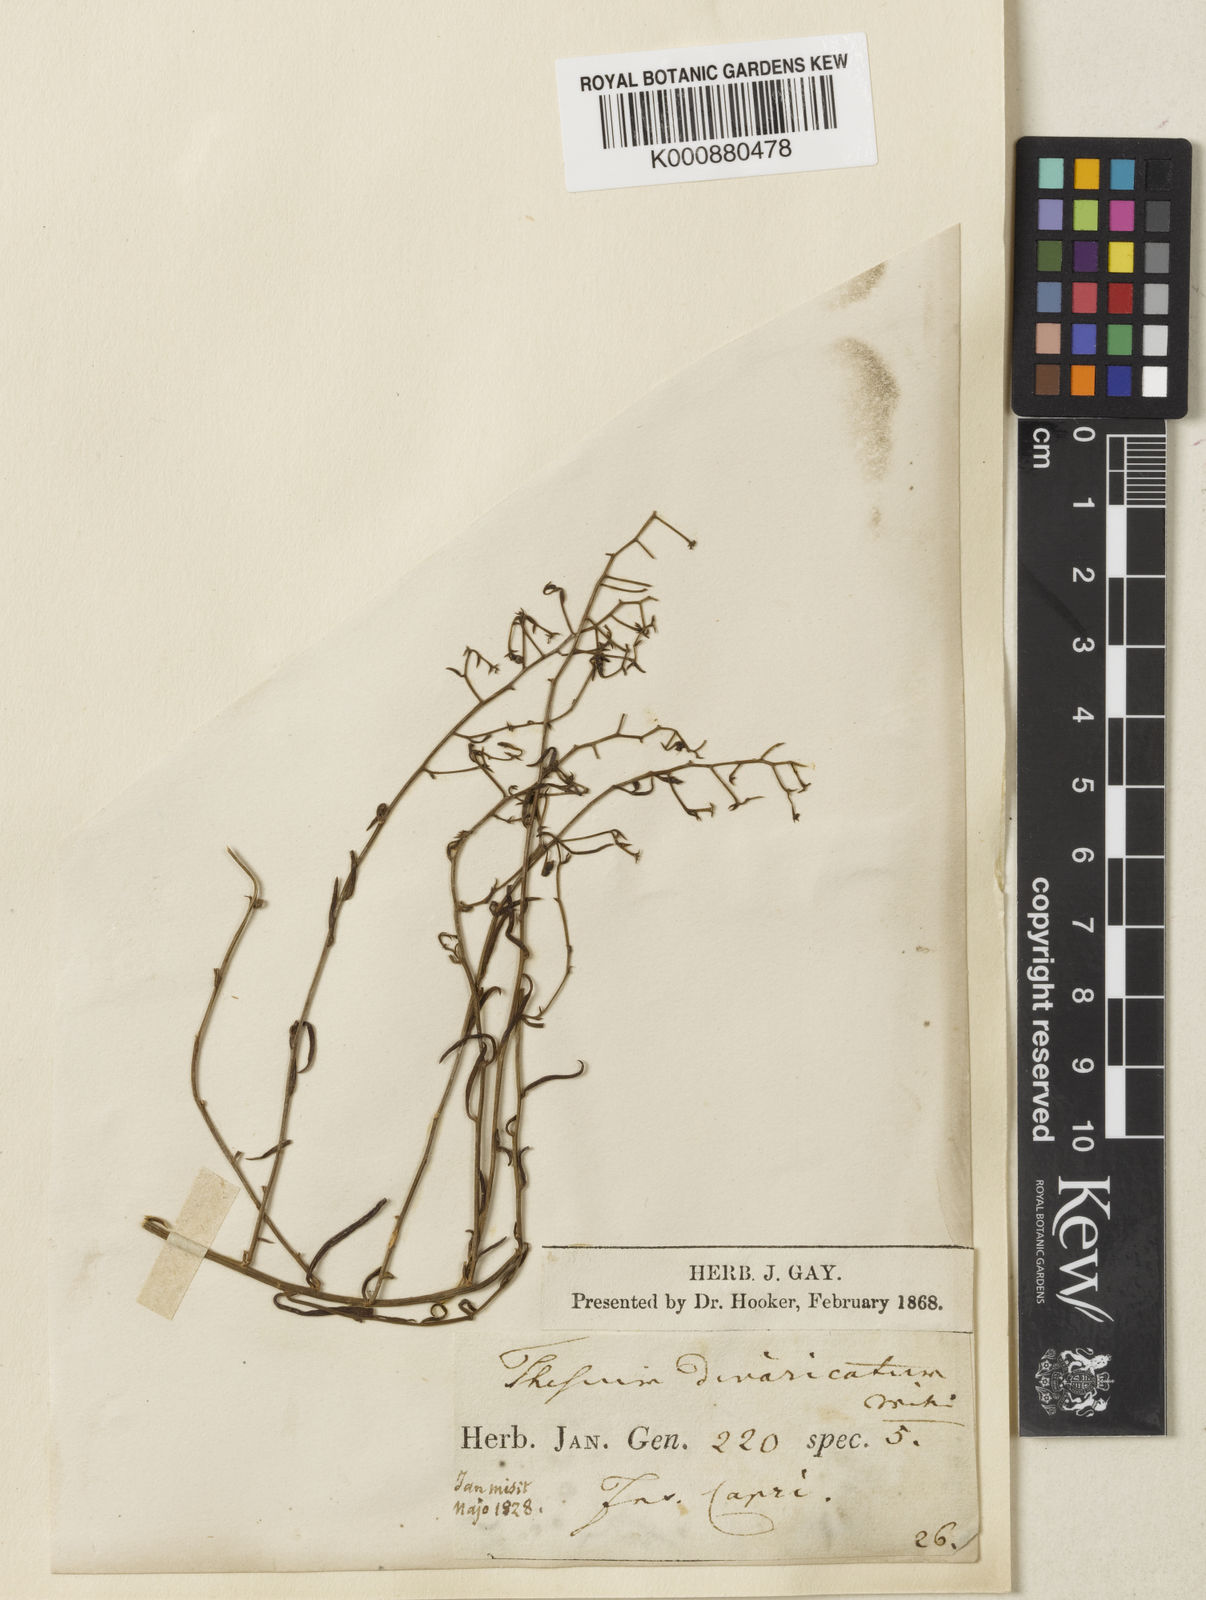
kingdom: Plantae
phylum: Tracheophyta
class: Magnoliopsida
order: Santalales
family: Thesiaceae
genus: Thesium
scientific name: Thesium divaricatum
